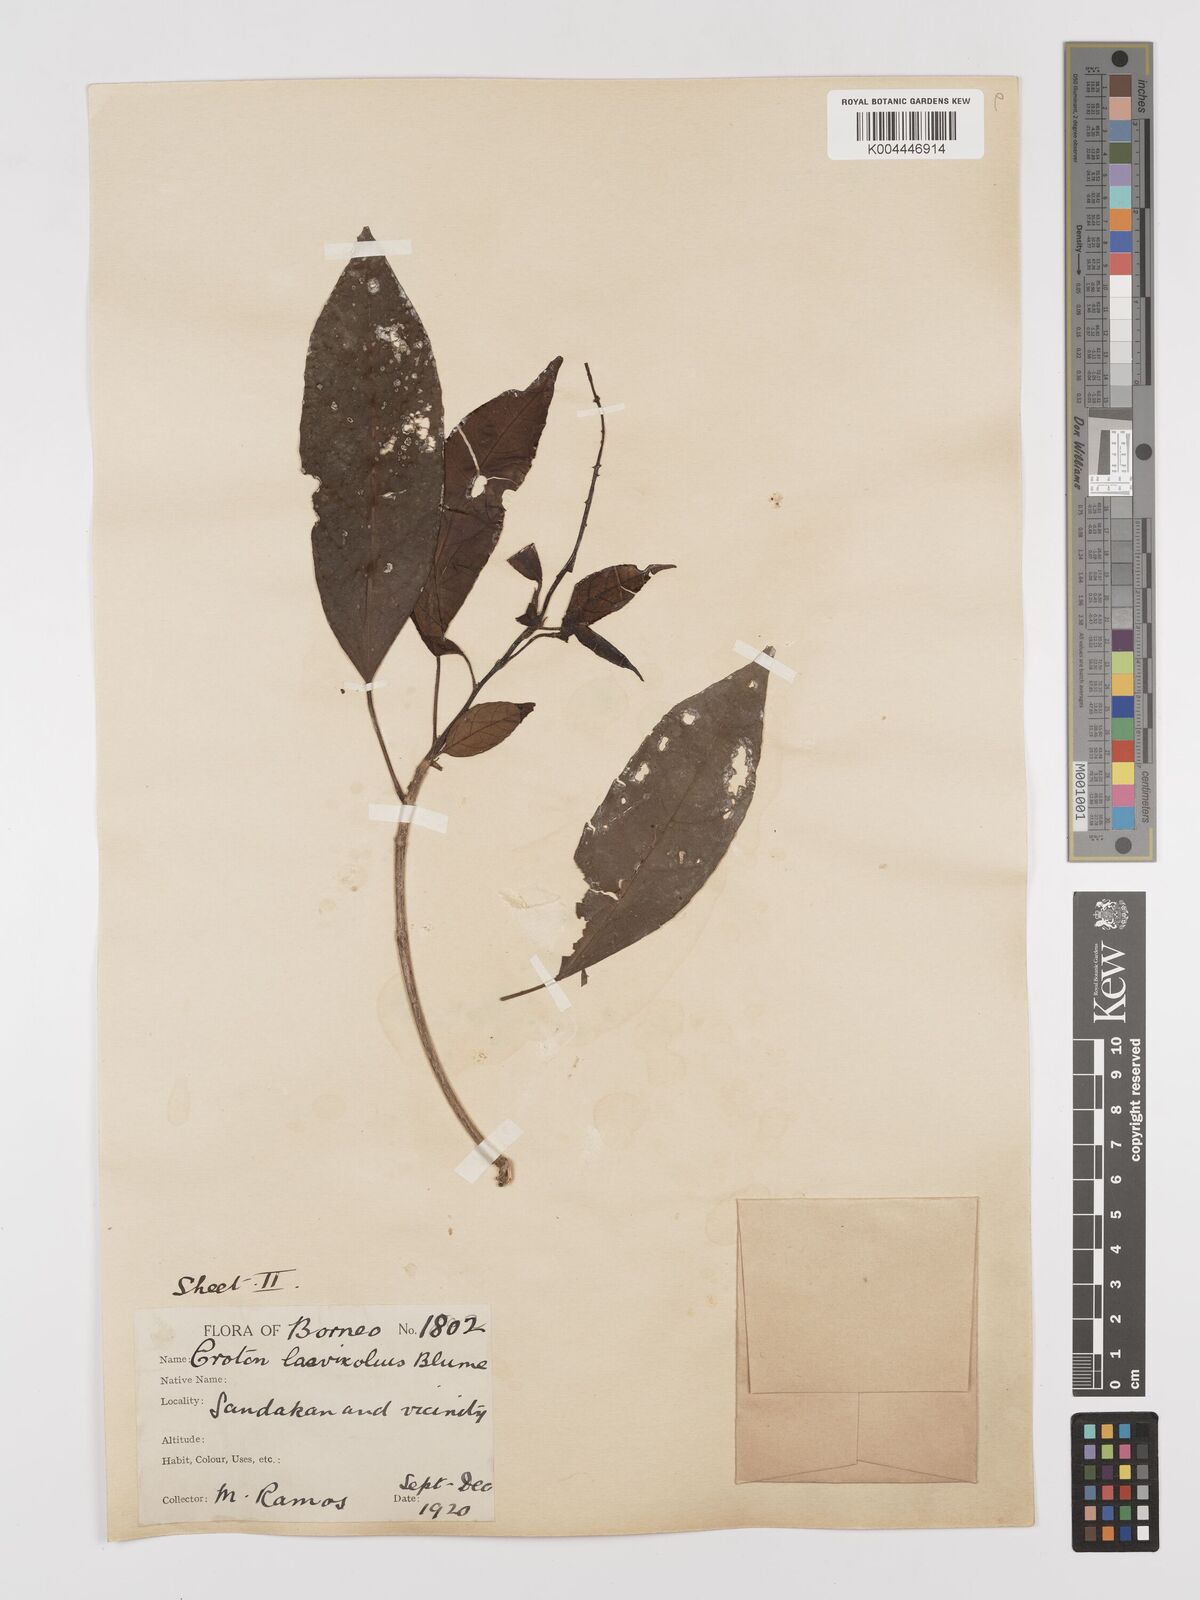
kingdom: Plantae
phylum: Tracheophyta
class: Magnoliopsida
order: Malpighiales
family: Euphorbiaceae
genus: Croton
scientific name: Croton oblongus
